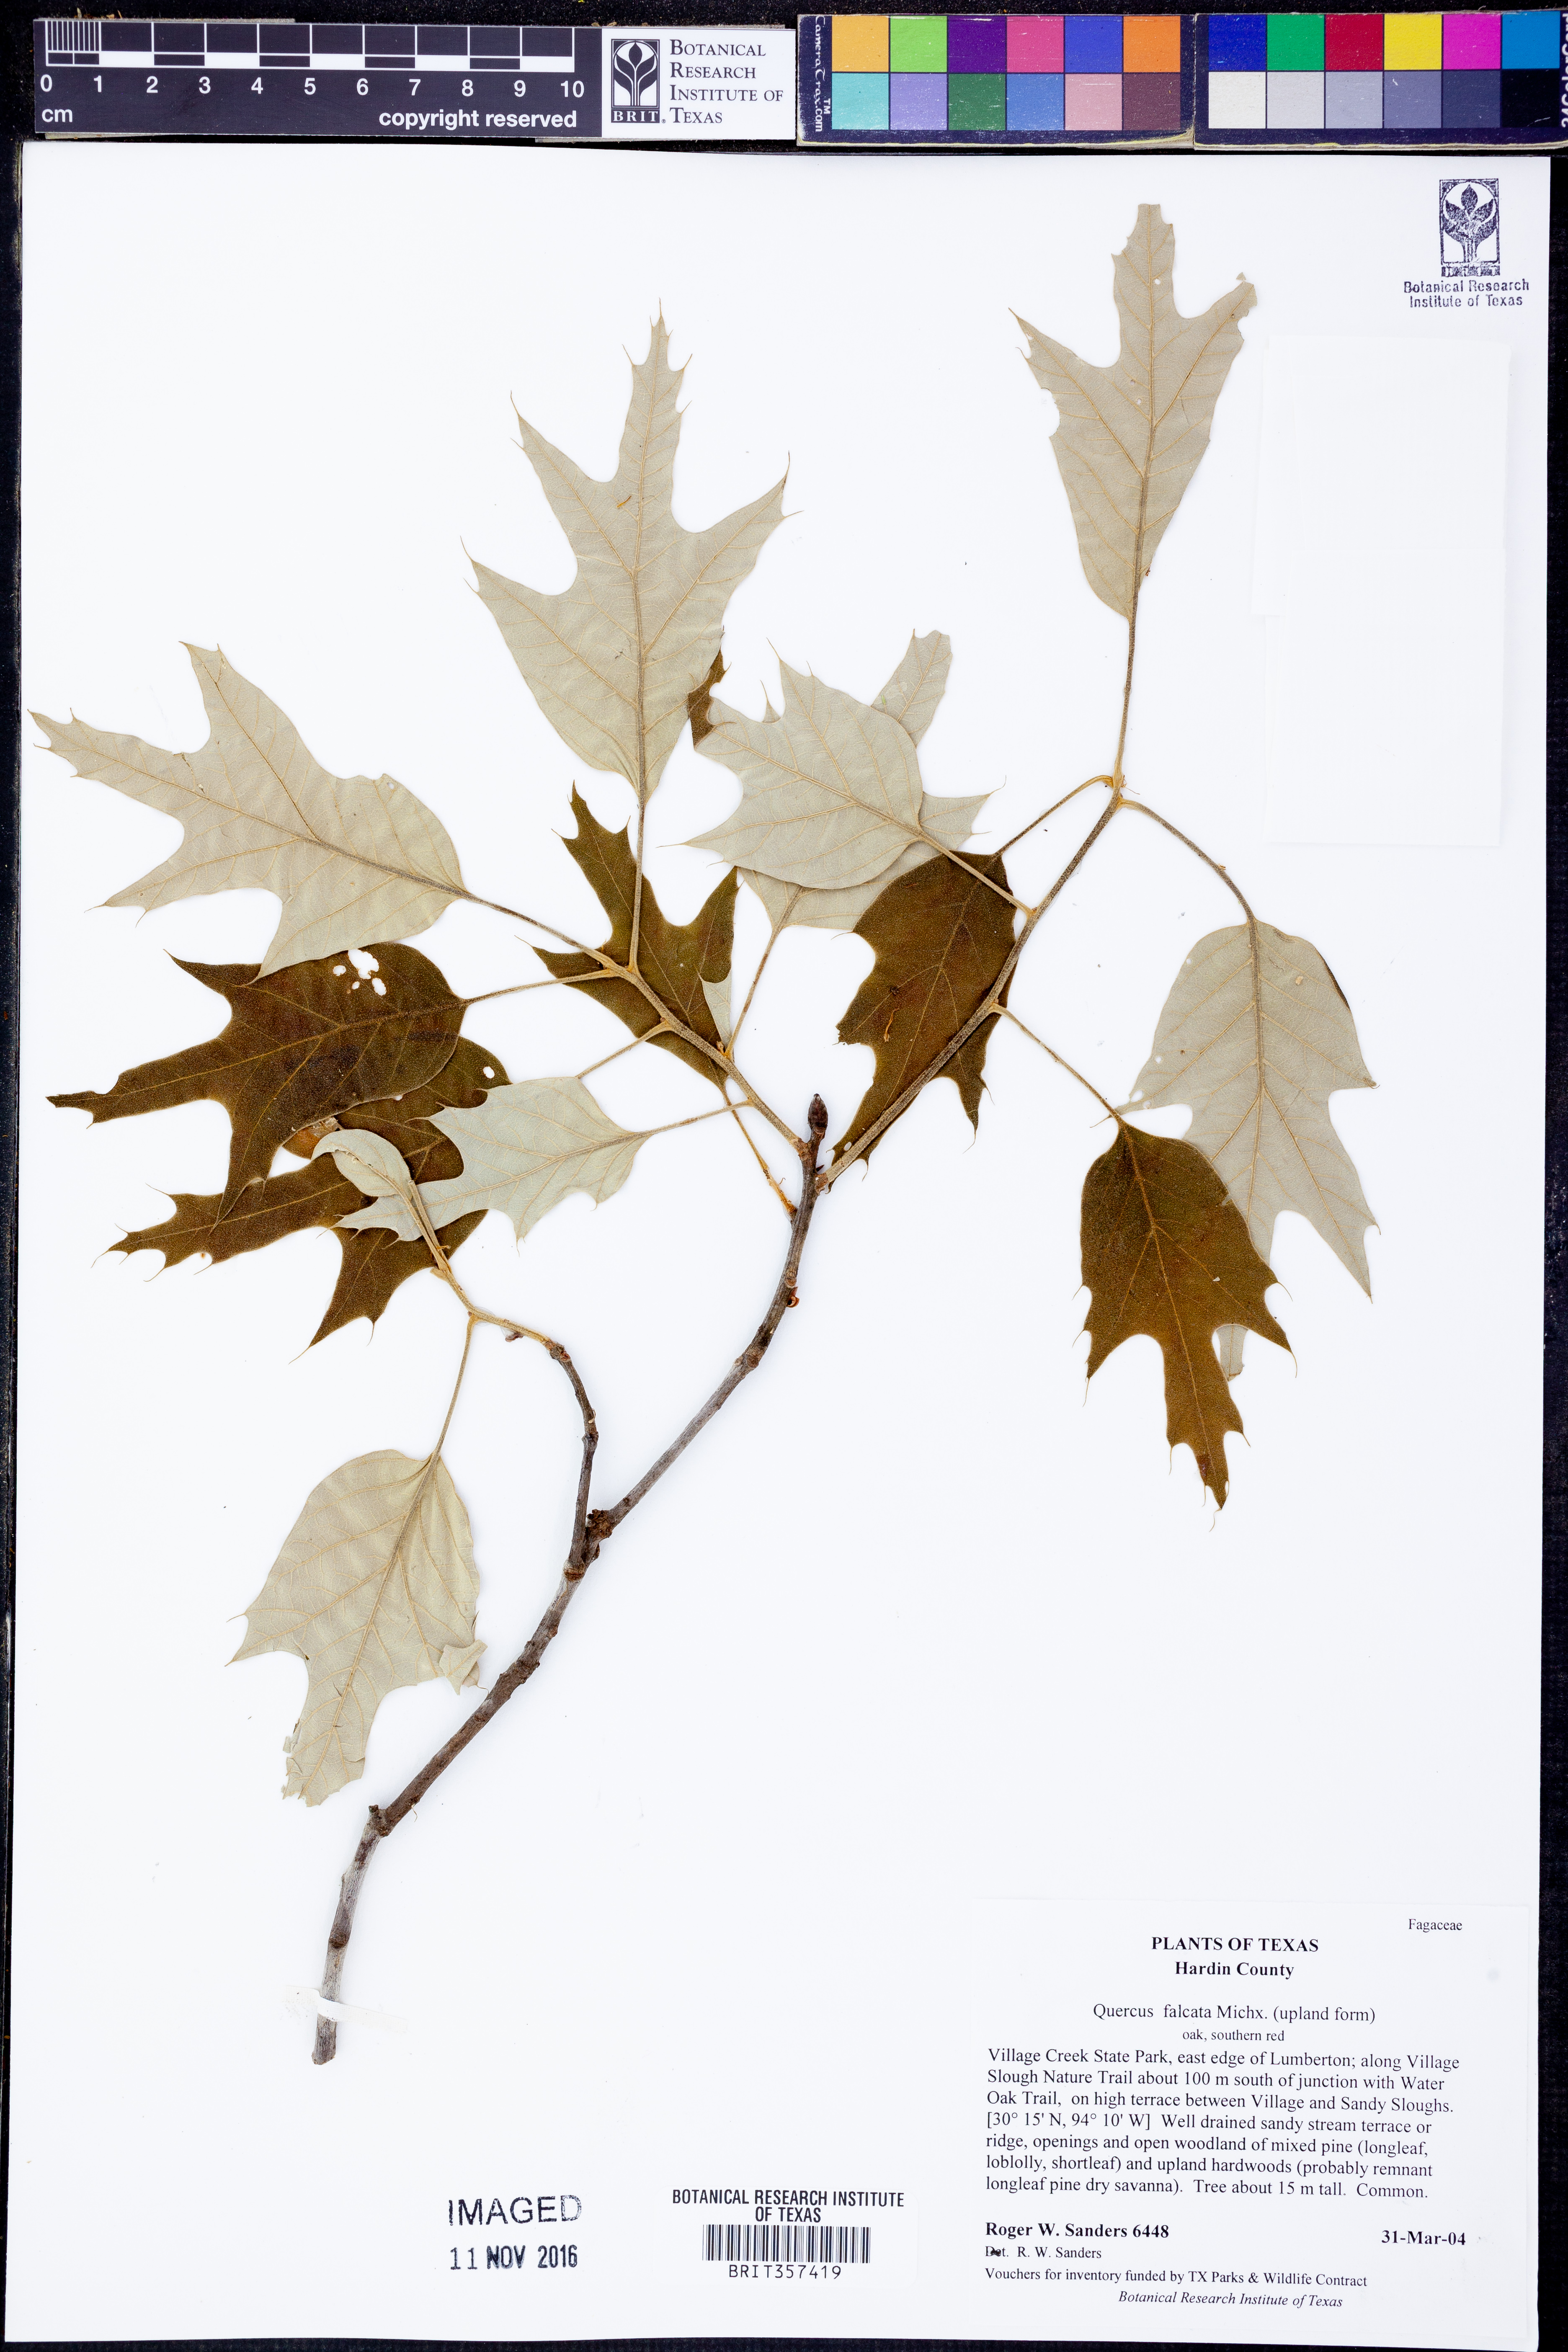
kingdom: Plantae
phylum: Tracheophyta
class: Magnoliopsida
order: Fagales
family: Fagaceae
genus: Quercus
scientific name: Quercus falcata
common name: Southern red oak
